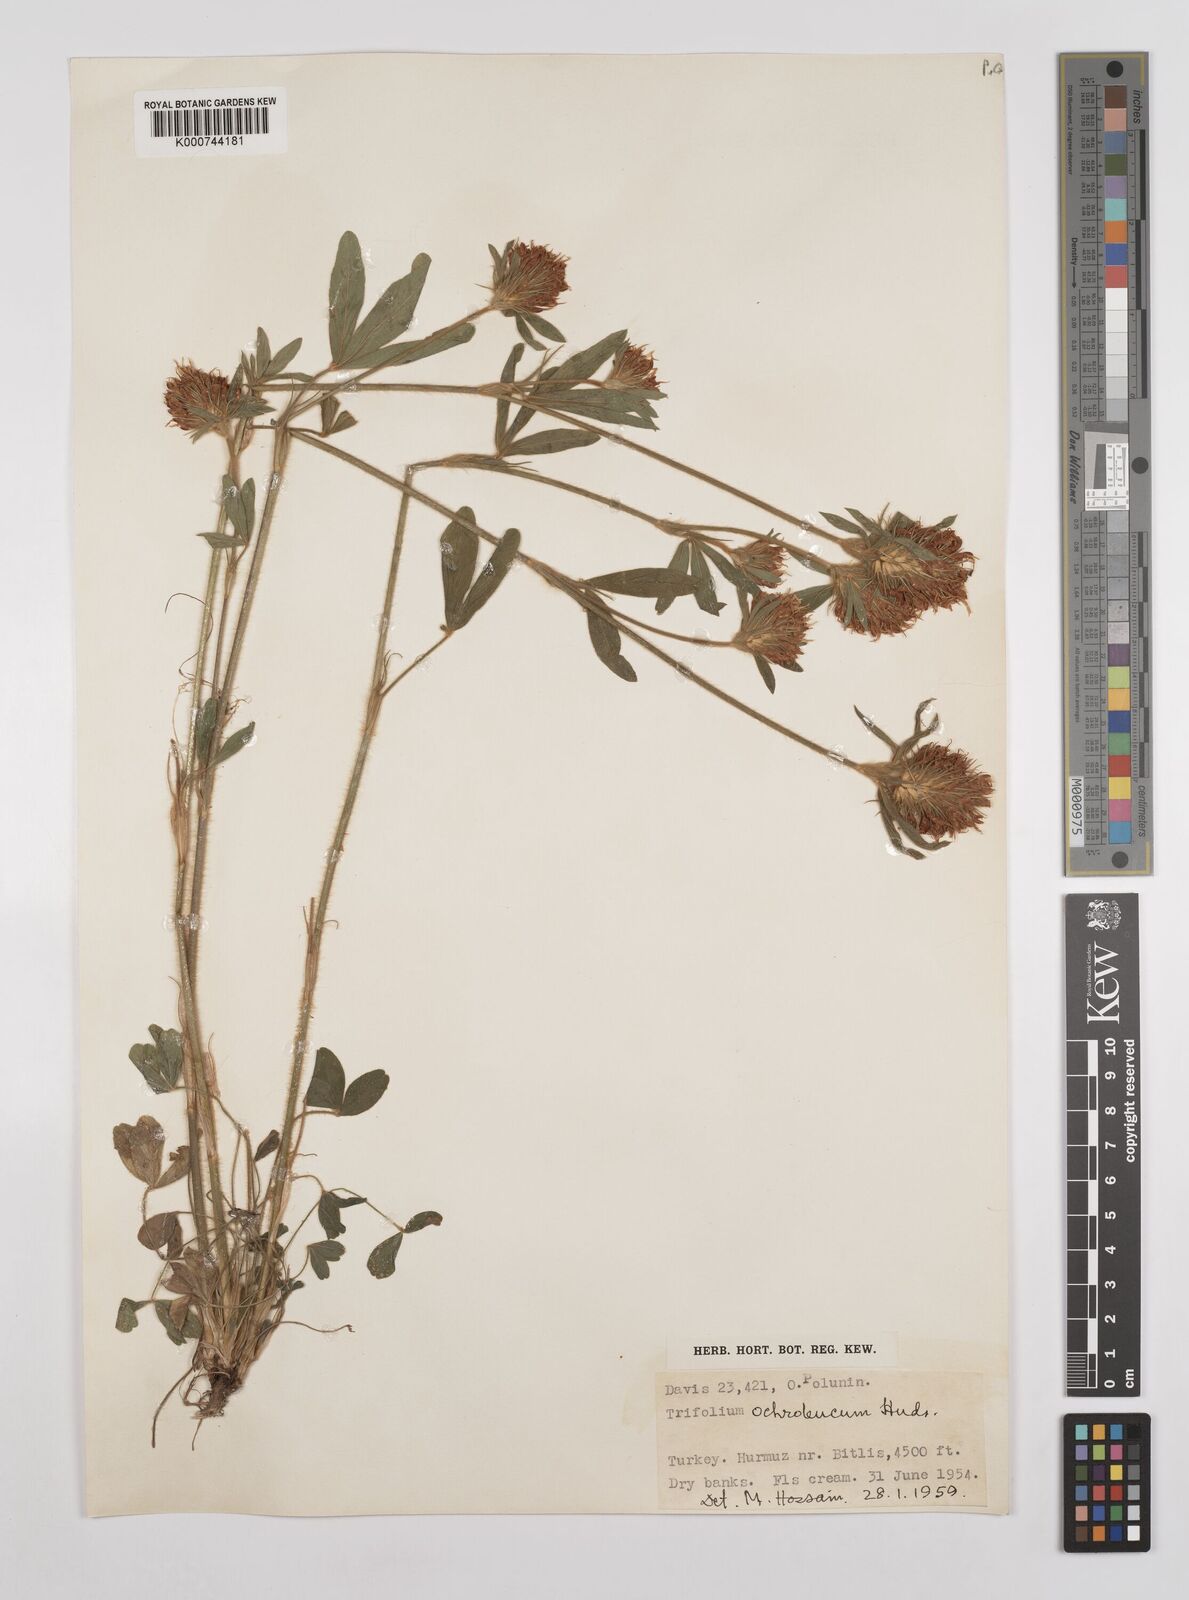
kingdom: Plantae
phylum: Tracheophyta
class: Magnoliopsida
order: Fabales
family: Fabaceae
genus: Trifolium
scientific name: Trifolium
